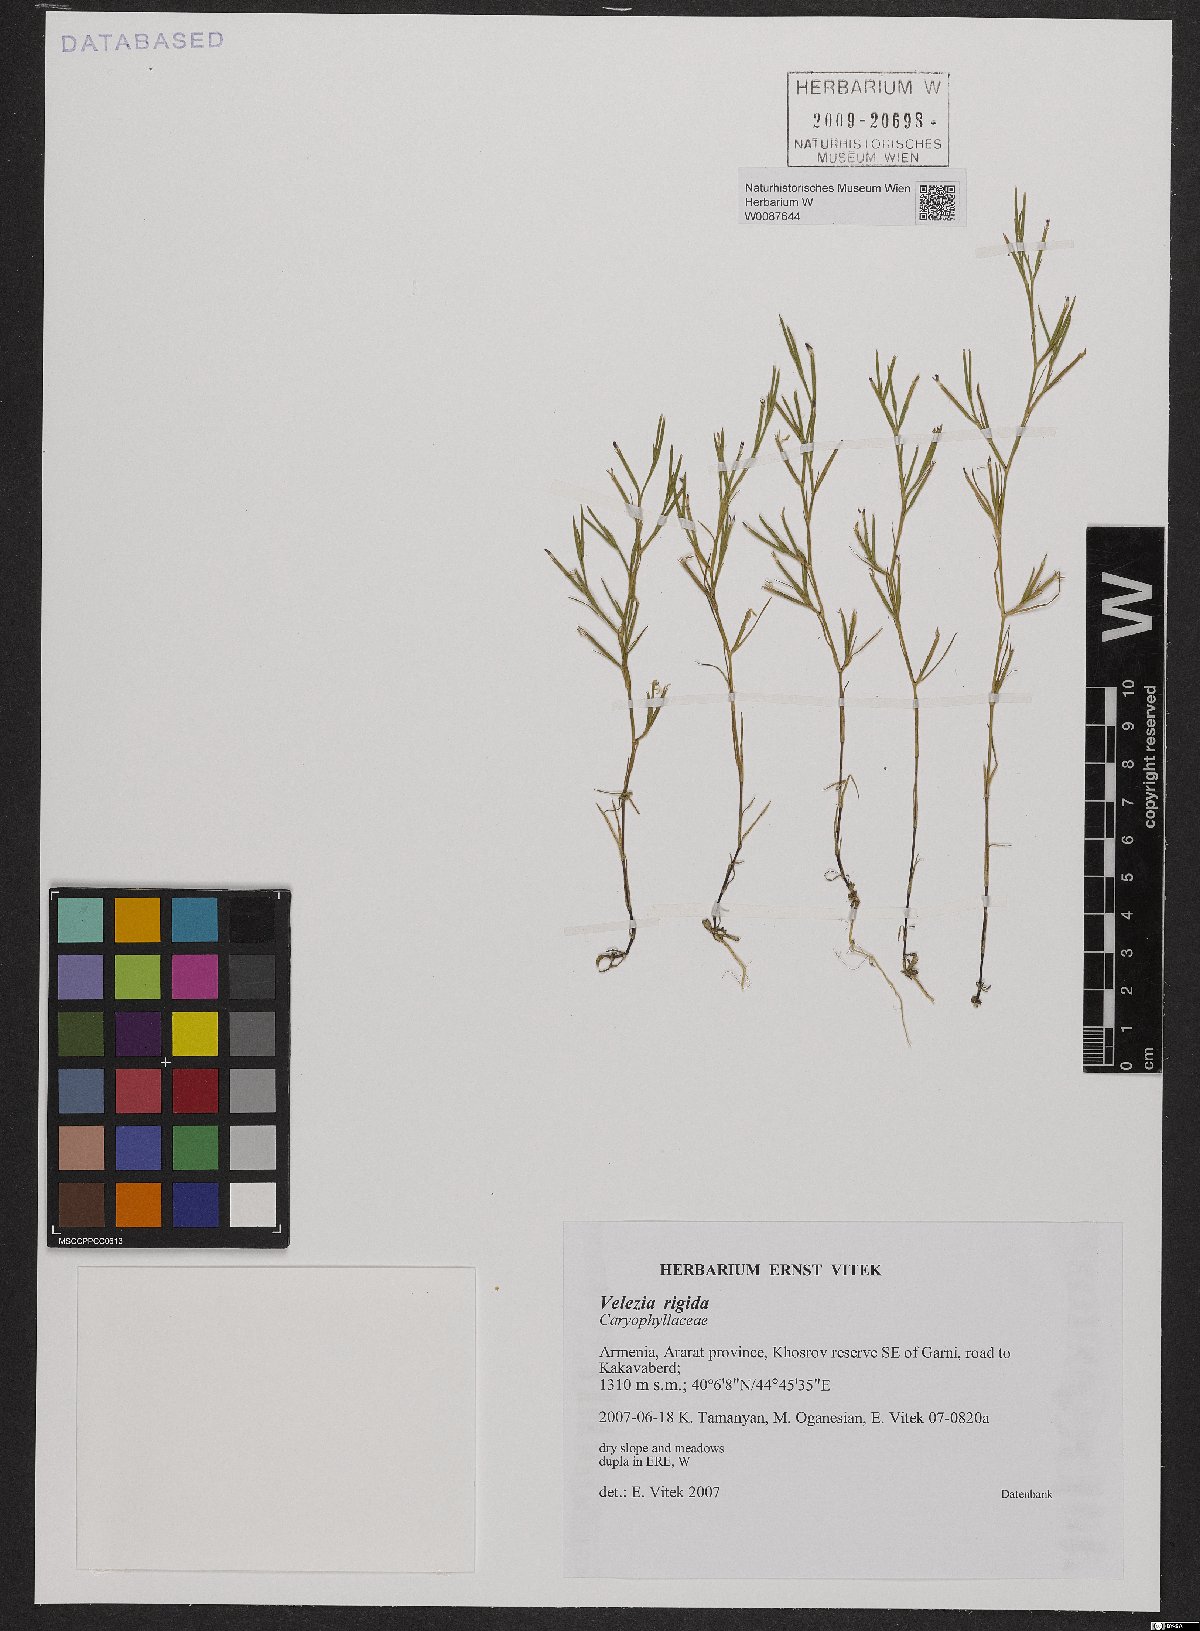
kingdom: Plantae
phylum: Tracheophyta
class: Magnoliopsida
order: Caryophyllales
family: Caryophyllaceae
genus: Dianthus
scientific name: Dianthus nudiflorus
